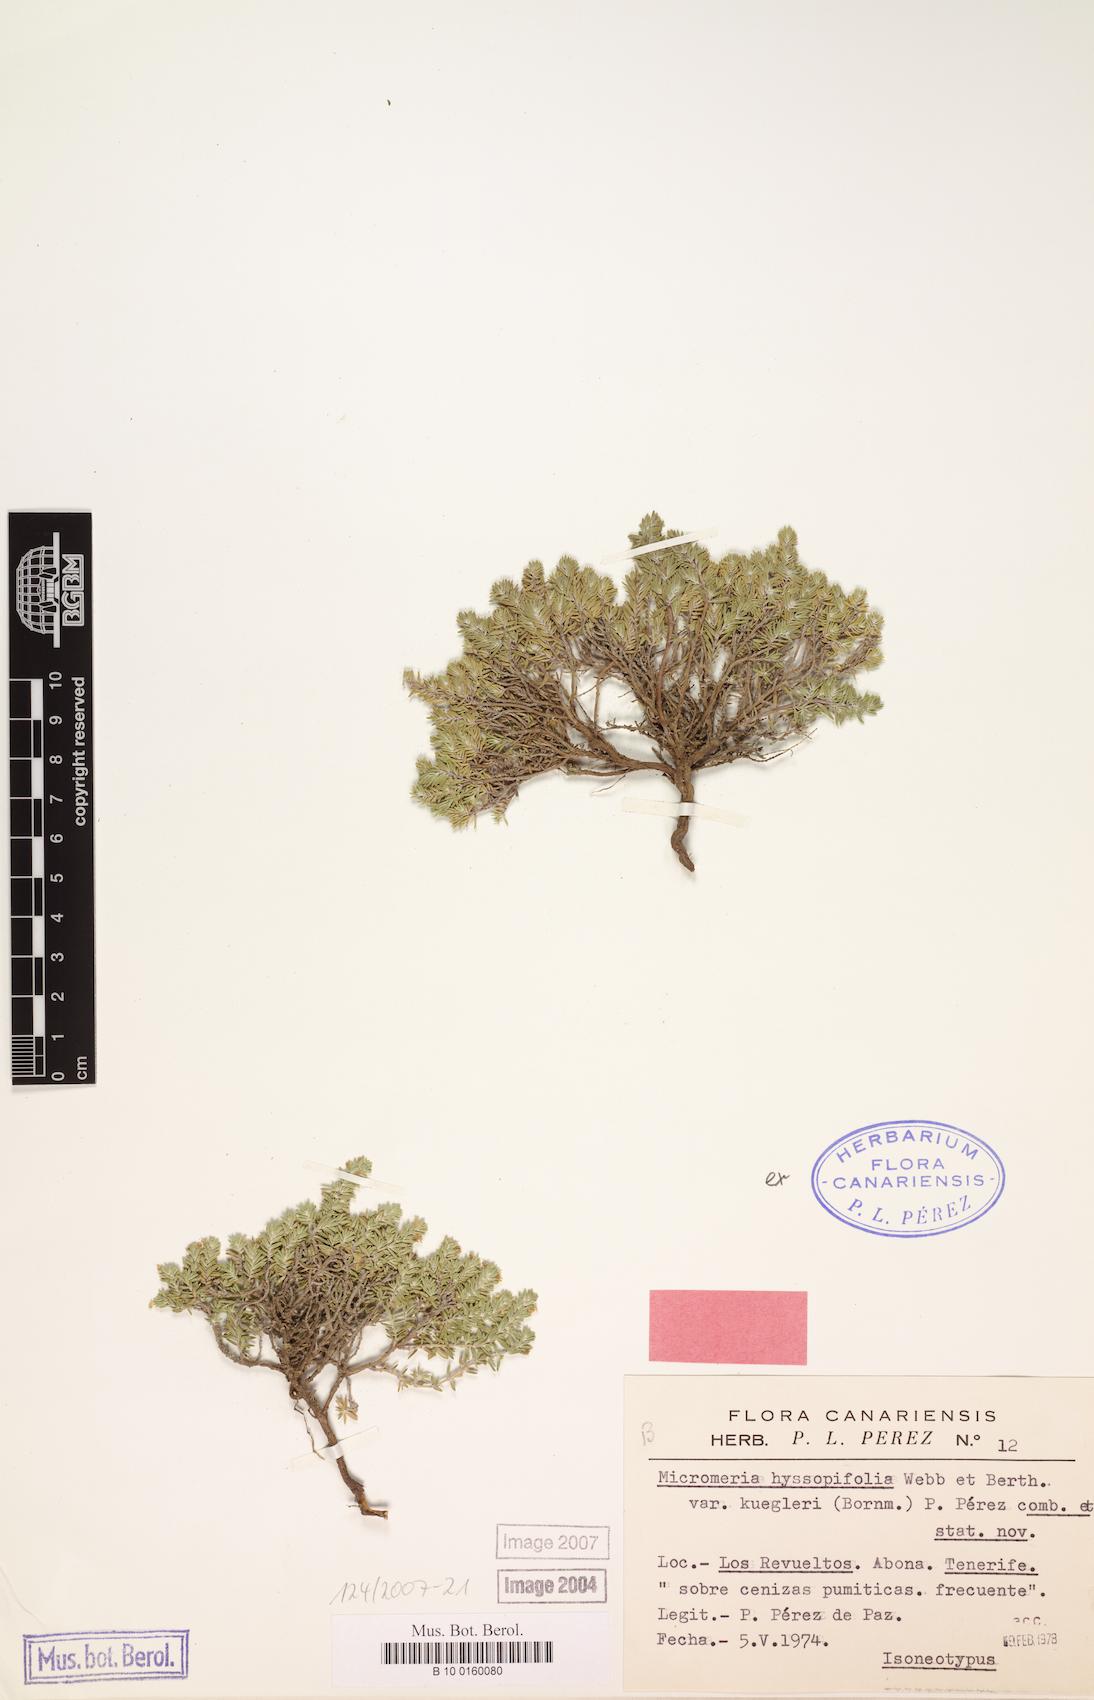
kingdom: Plantae
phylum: Tracheophyta
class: Magnoliopsida
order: Lamiales
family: Lamiaceae
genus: Micromeria
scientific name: Micromeria ericifolia
